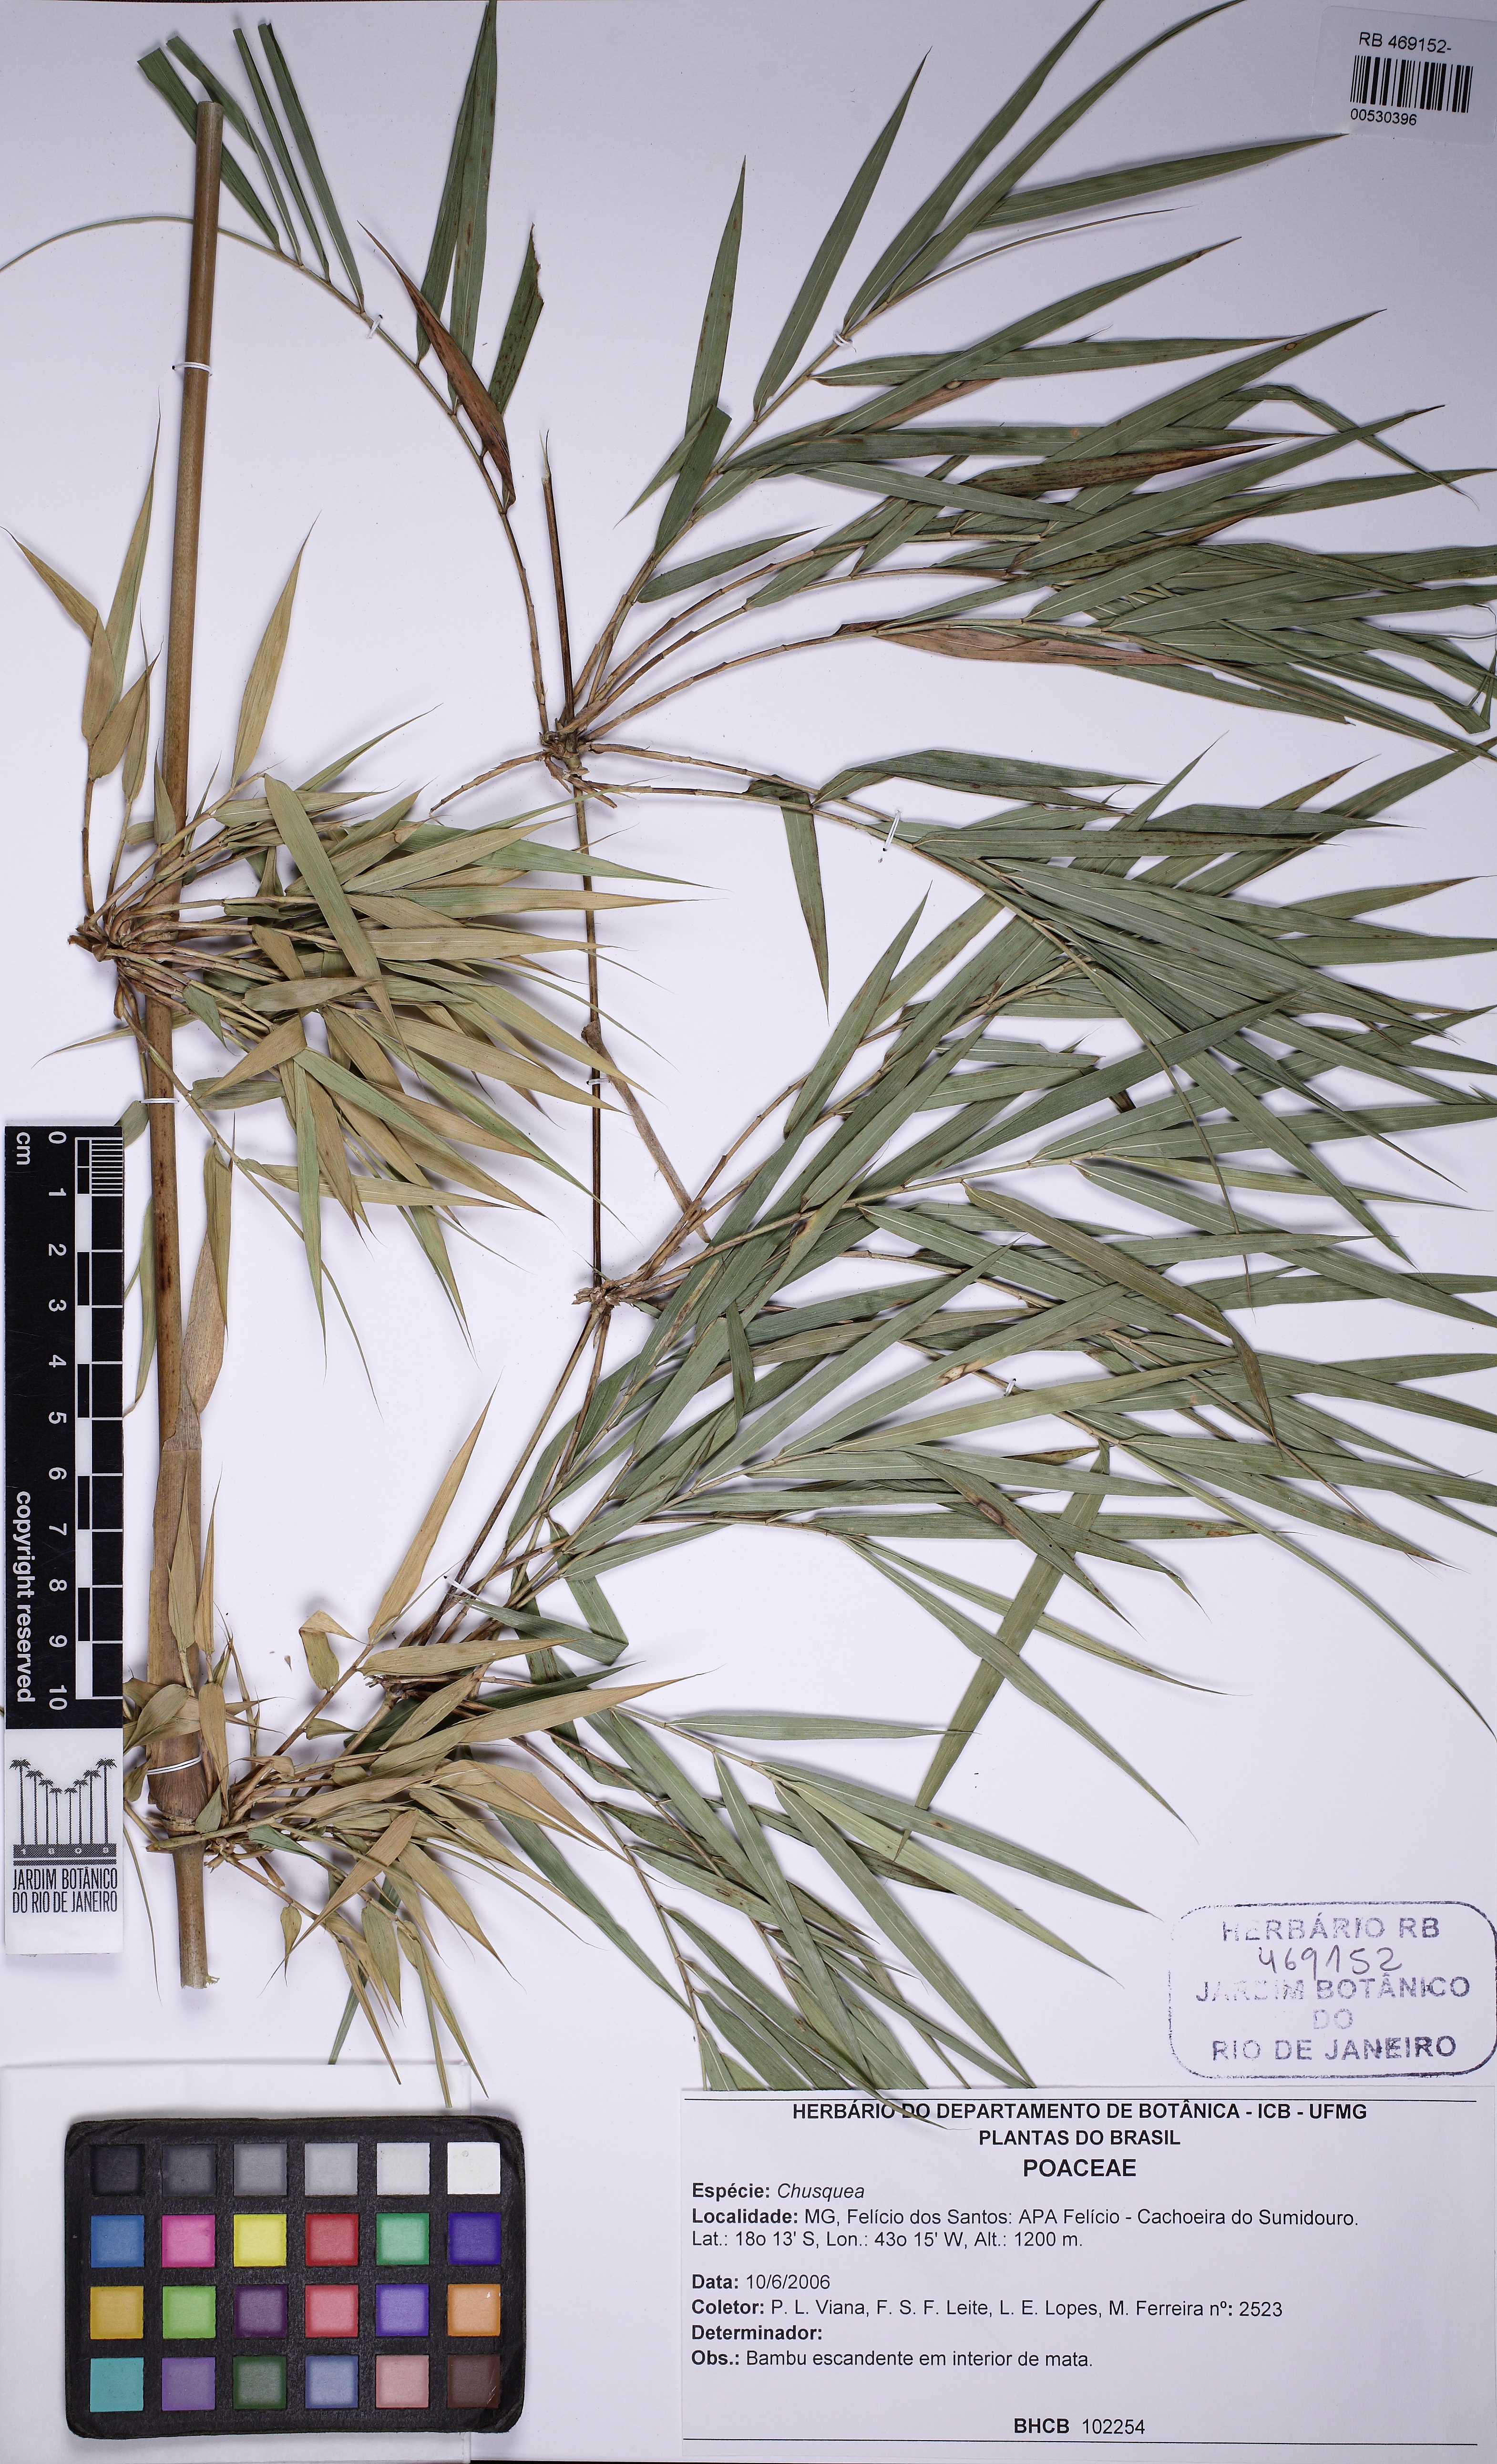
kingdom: Plantae
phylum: Tracheophyta
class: Liliopsida
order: Poales
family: Poaceae
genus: Chusquea
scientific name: Chusquea longispiculata
